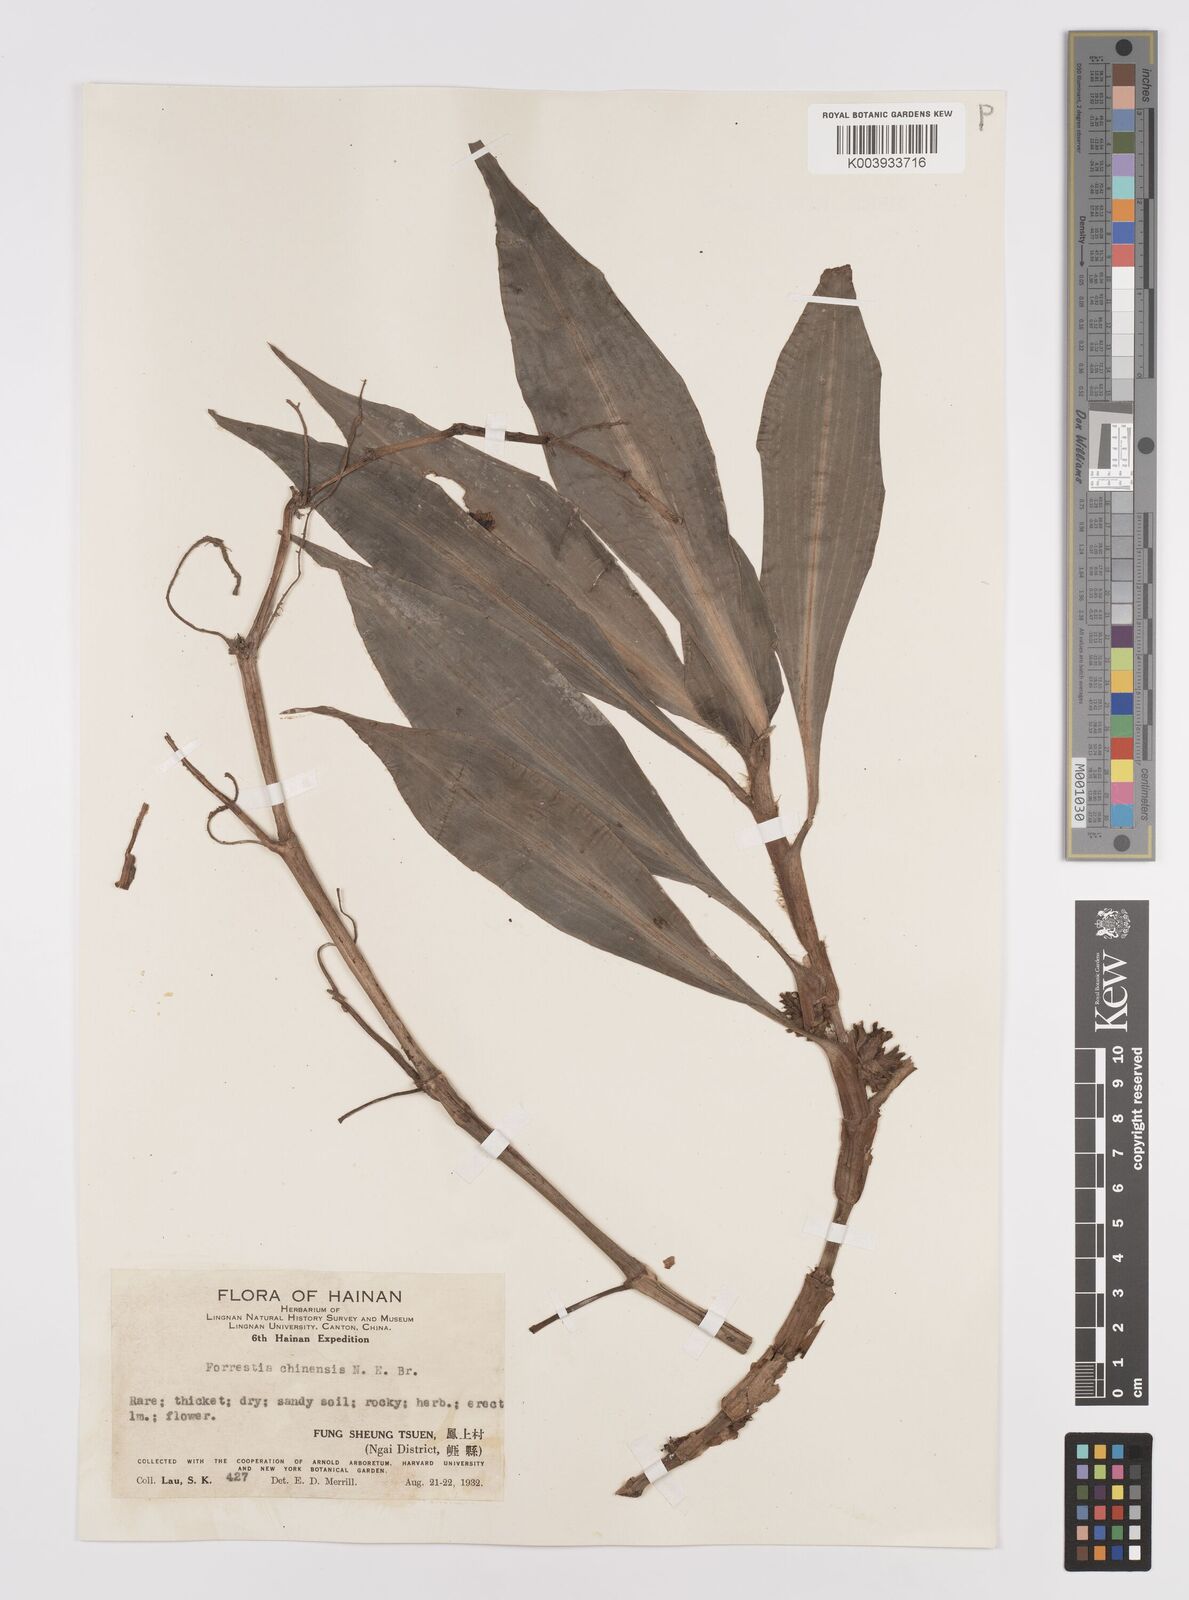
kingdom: Plantae
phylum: Tracheophyta
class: Liliopsida
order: Commelinales
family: Commelinaceae
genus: Amischotolype
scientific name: Amischotolype hispida
